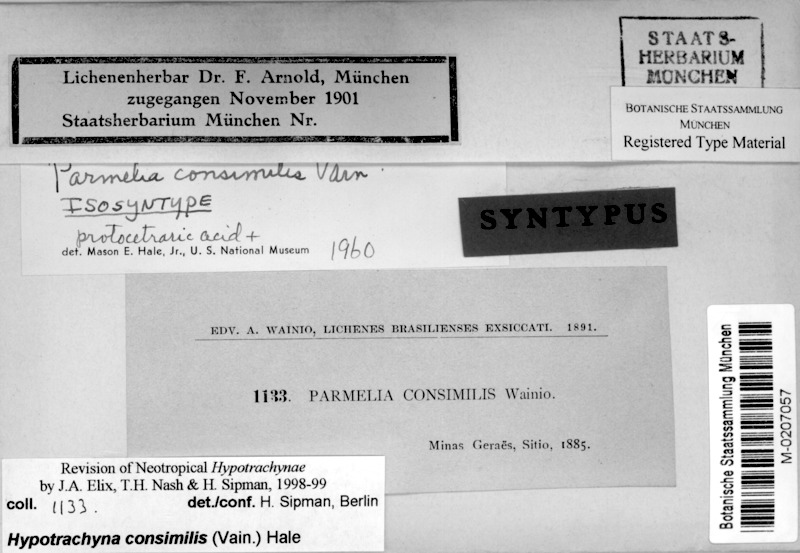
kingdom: Fungi
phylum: Ascomycota
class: Lecanoromycetes
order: Lecanorales
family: Parmeliaceae
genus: Remototrachyna
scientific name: Remototrachyna consimilis
